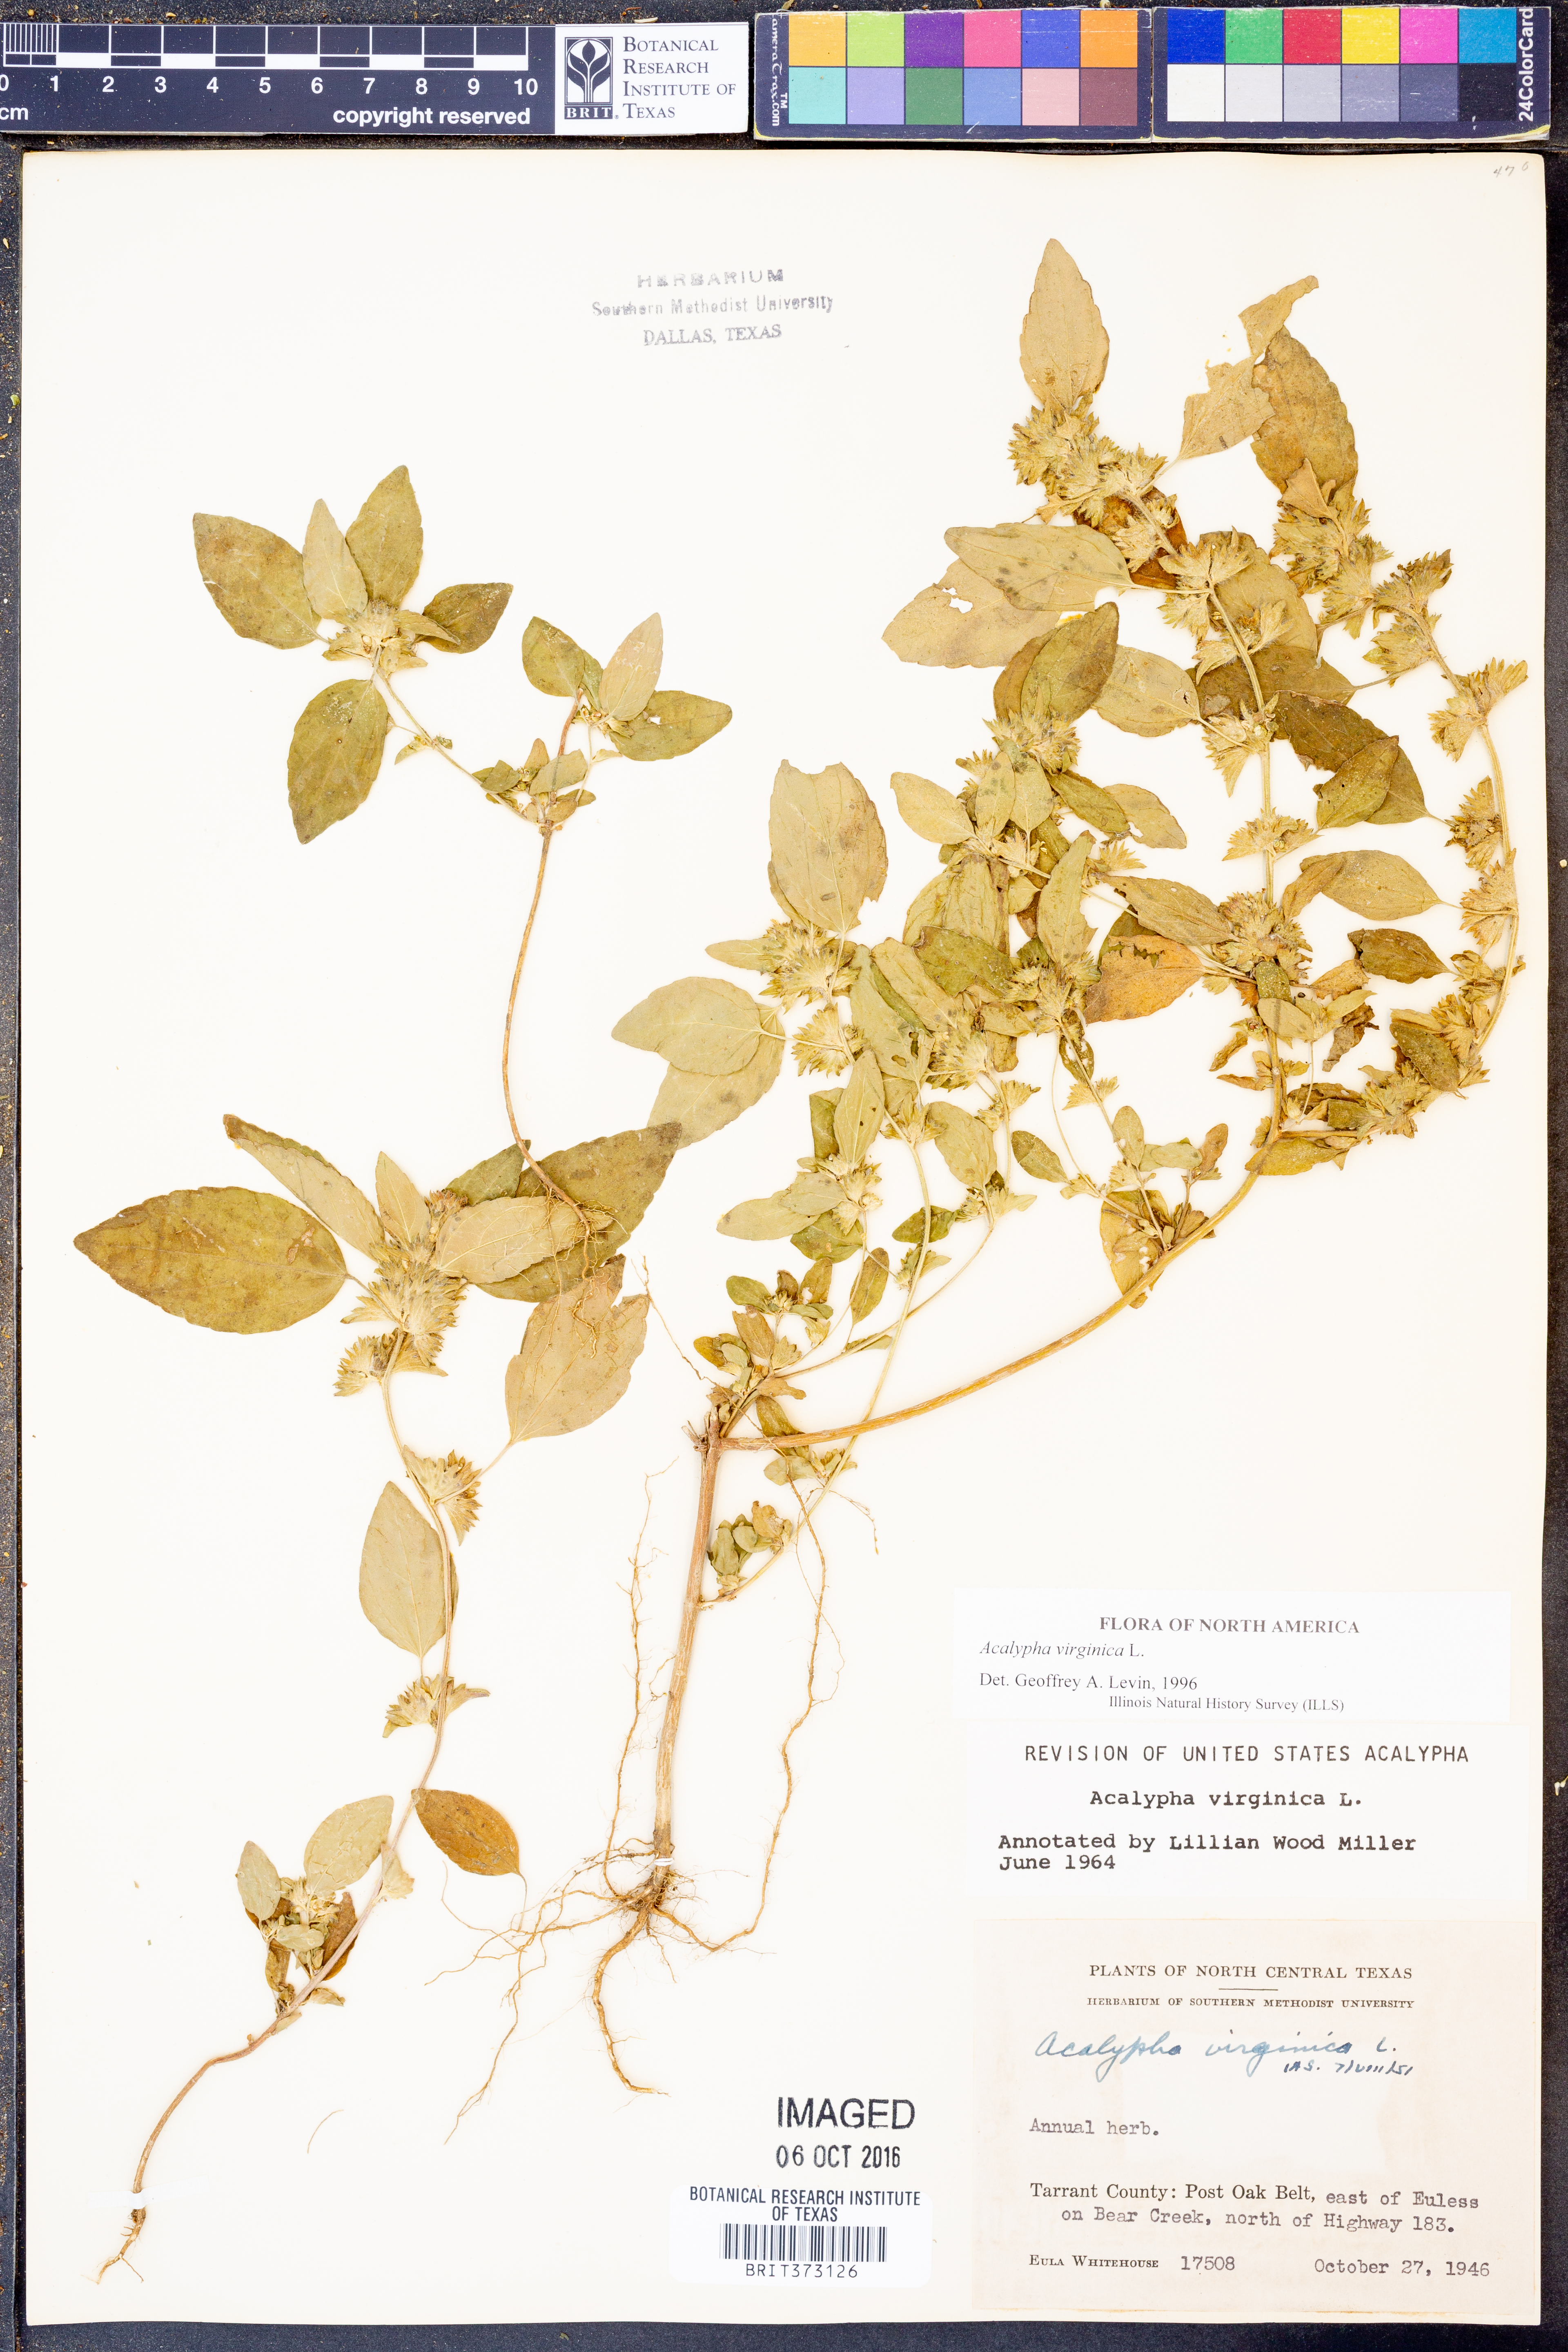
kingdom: Plantae
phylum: Tracheophyta
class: Magnoliopsida
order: Malpighiales
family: Euphorbiaceae
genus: Acalypha
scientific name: Acalypha virginica
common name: Virginia copperleaf
